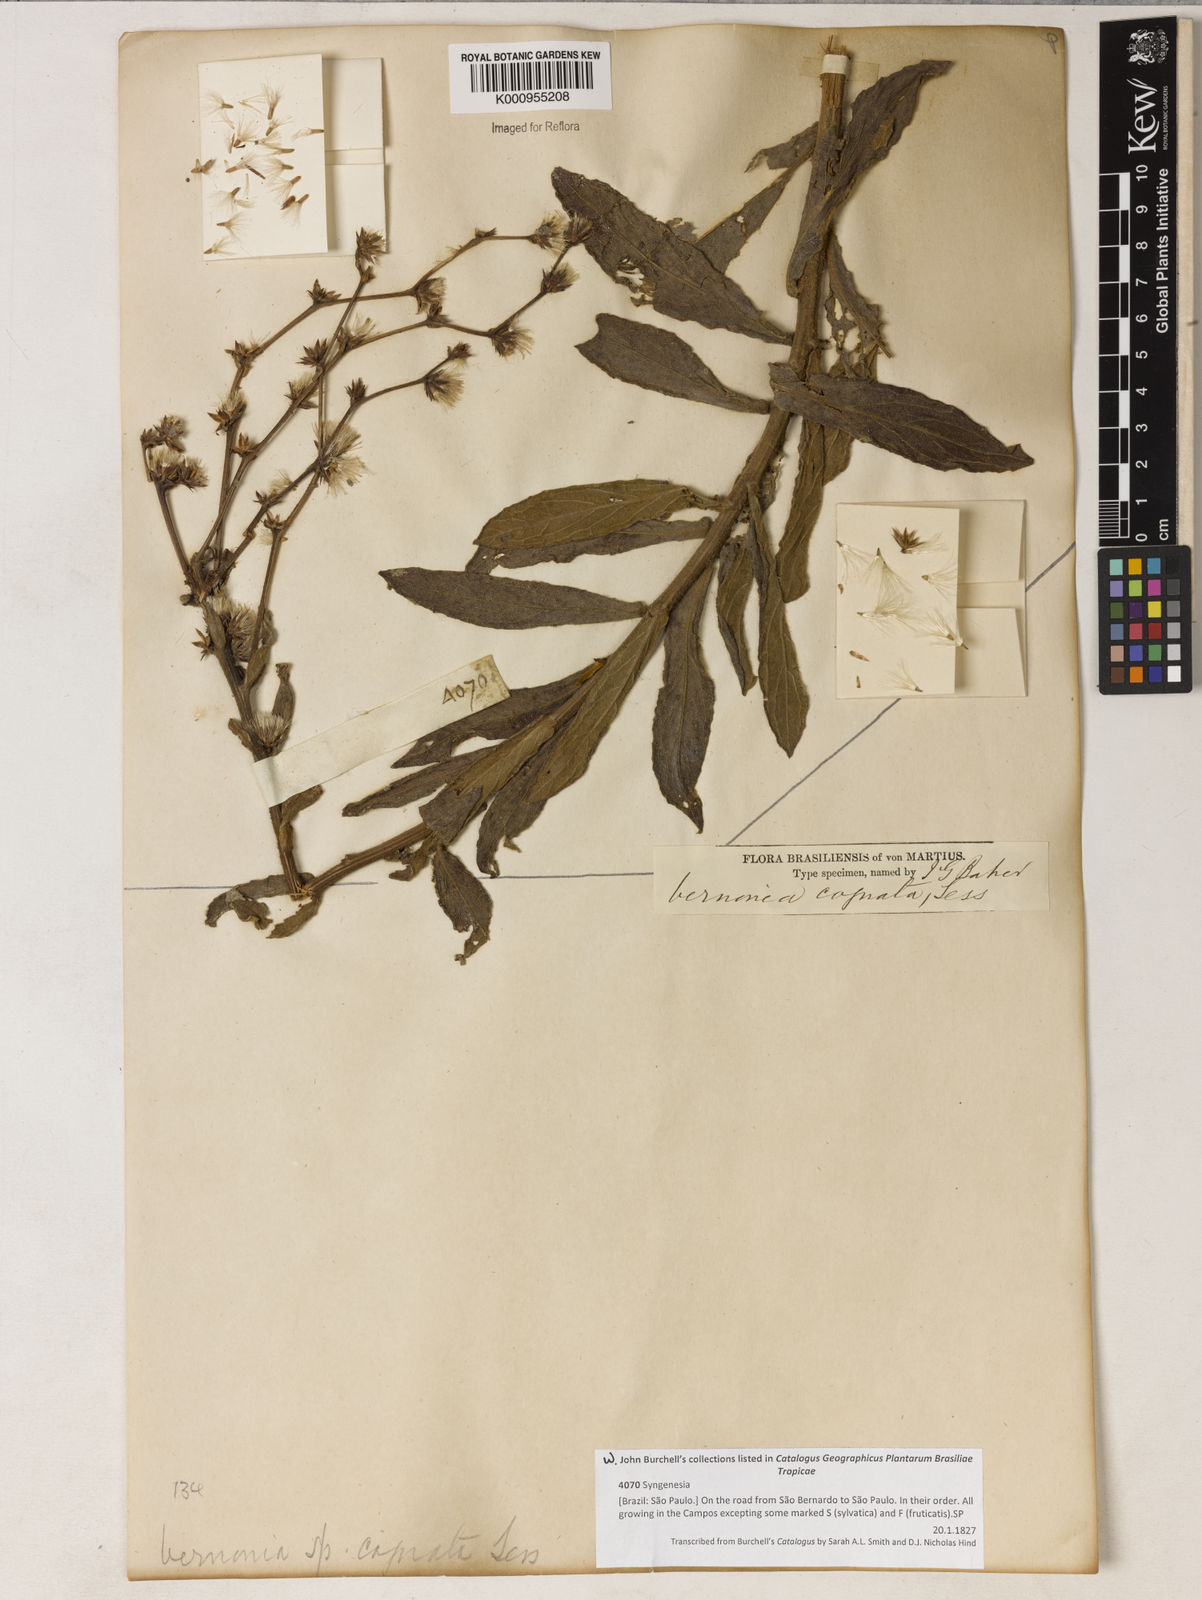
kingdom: Plantae
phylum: Tracheophyta
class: Magnoliopsida
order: Asterales
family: Asteraceae
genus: Chrysolaena
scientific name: Chrysolaena cognata
